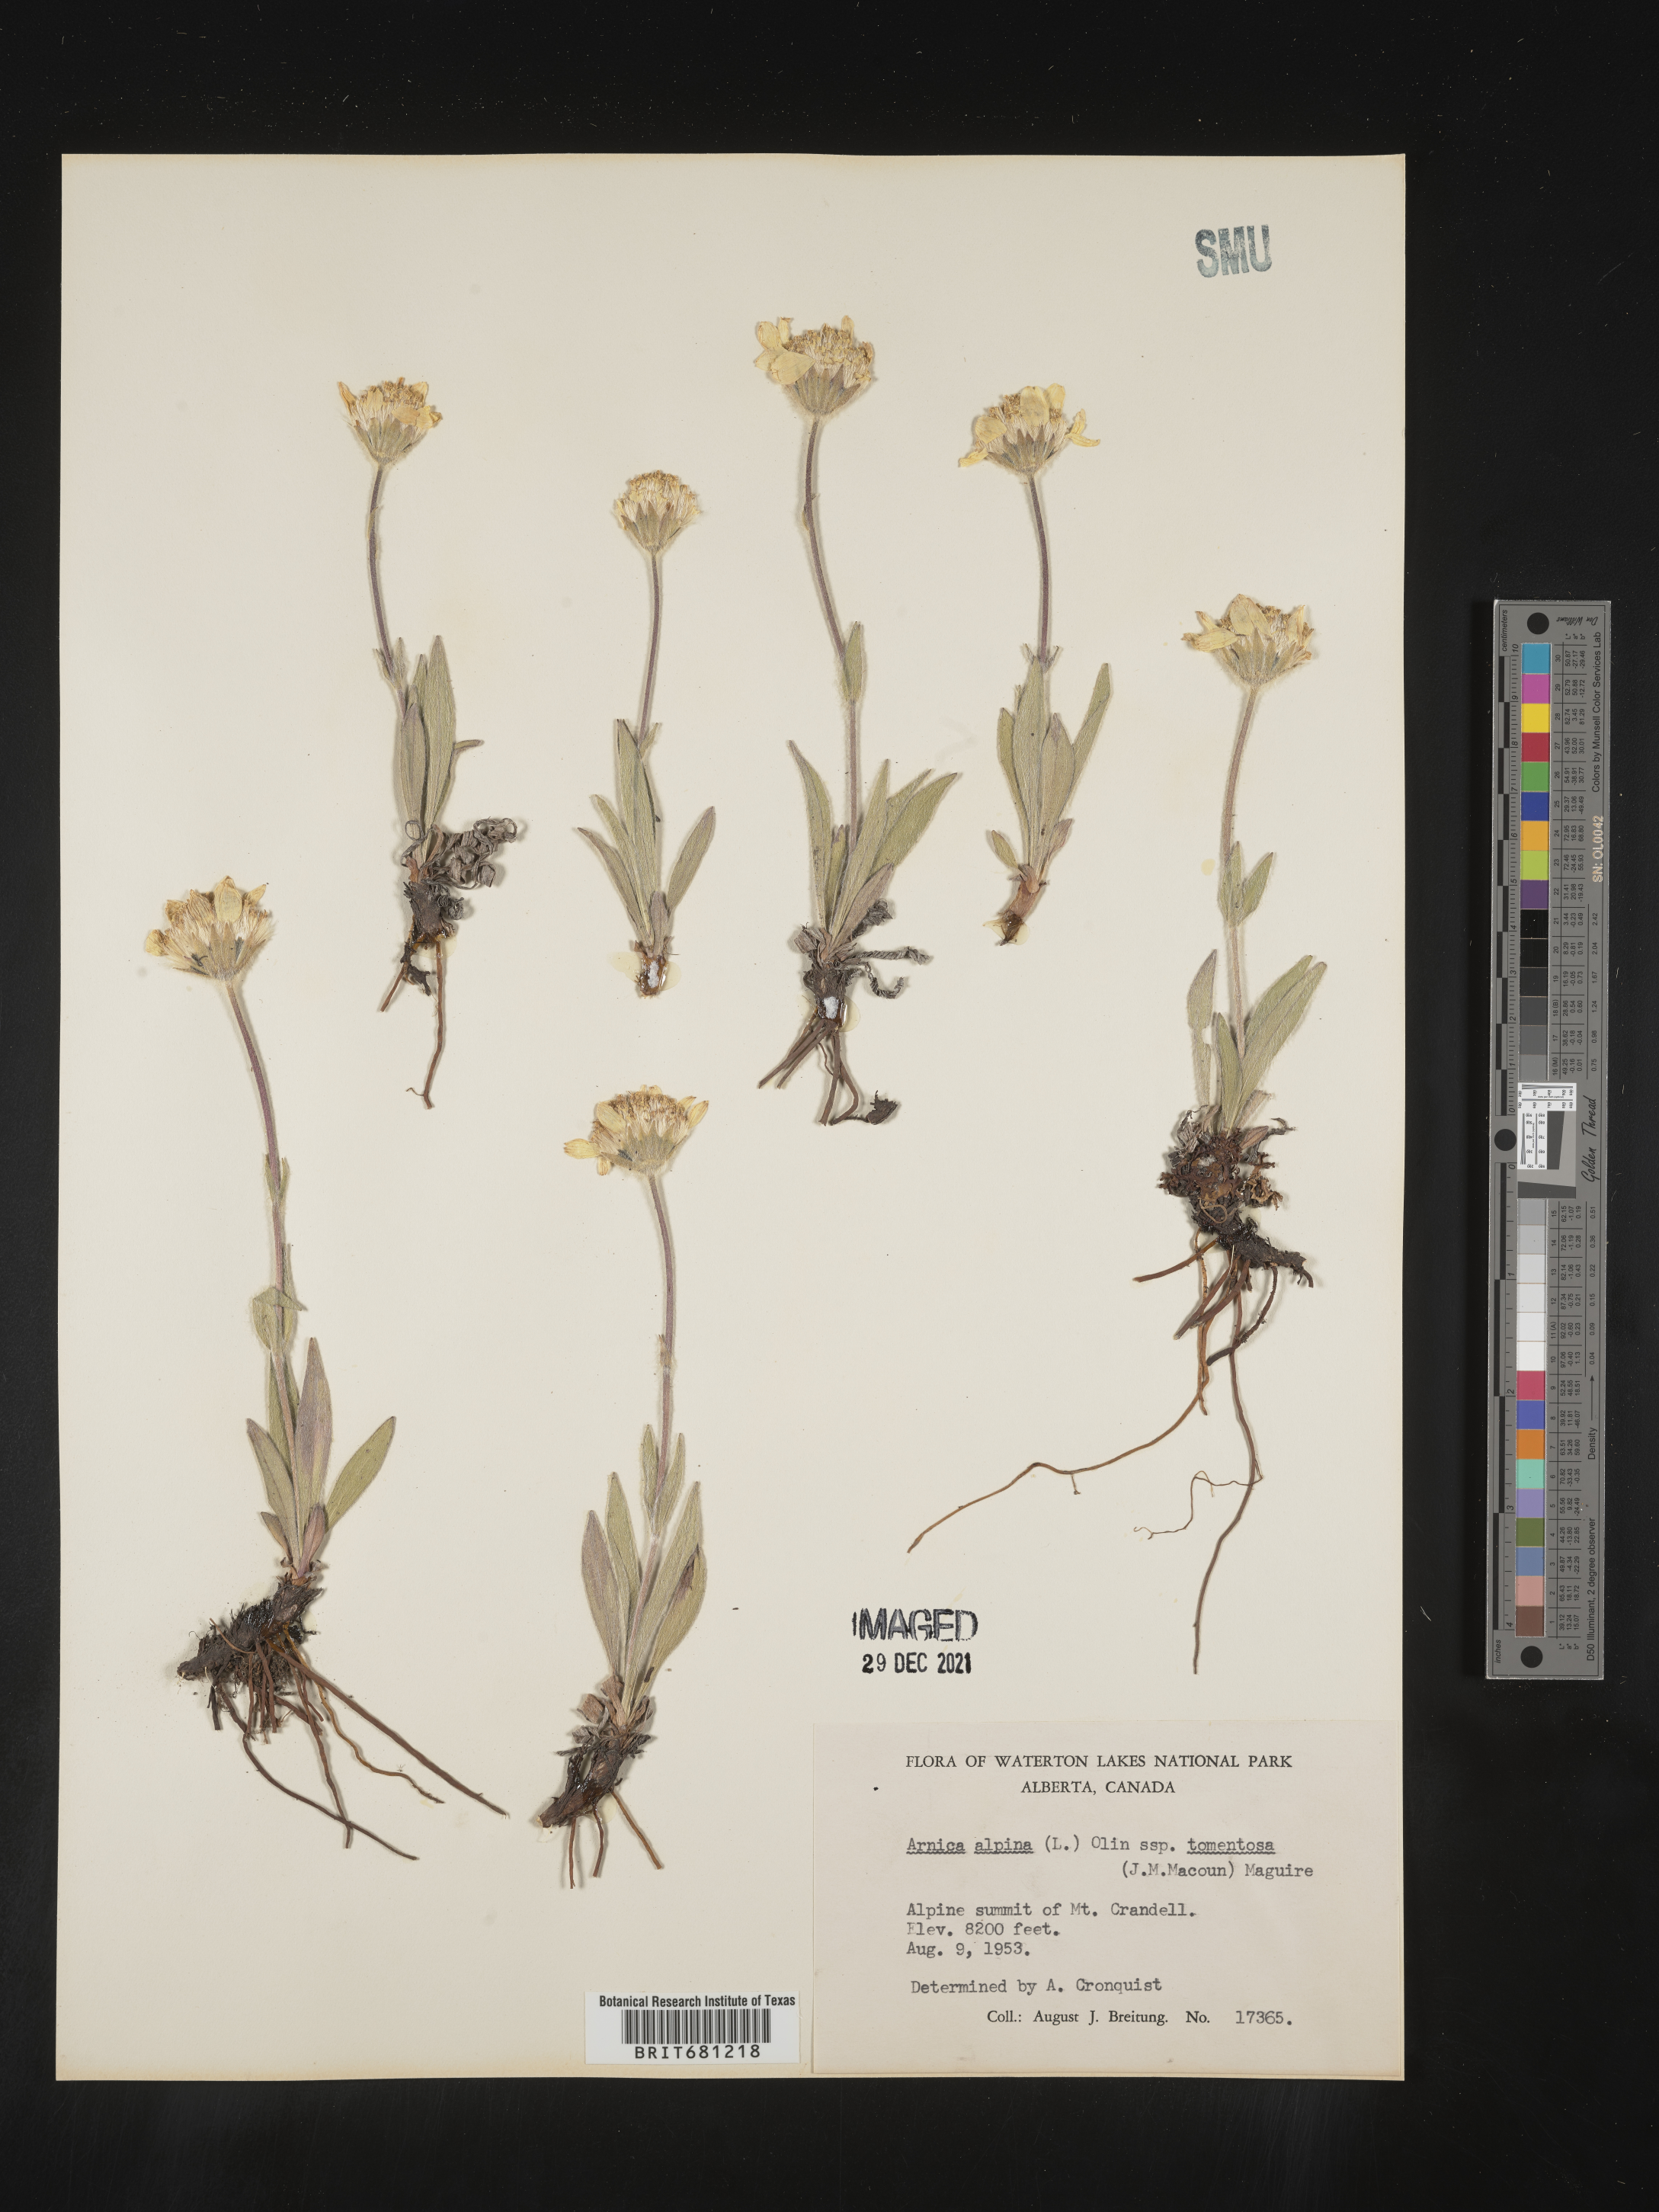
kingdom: Plantae
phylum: Tracheophyta
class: Magnoliopsida
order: Asterales
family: Asteraceae
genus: Arnica
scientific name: Arnica angustifolia
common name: Arctic arnica
